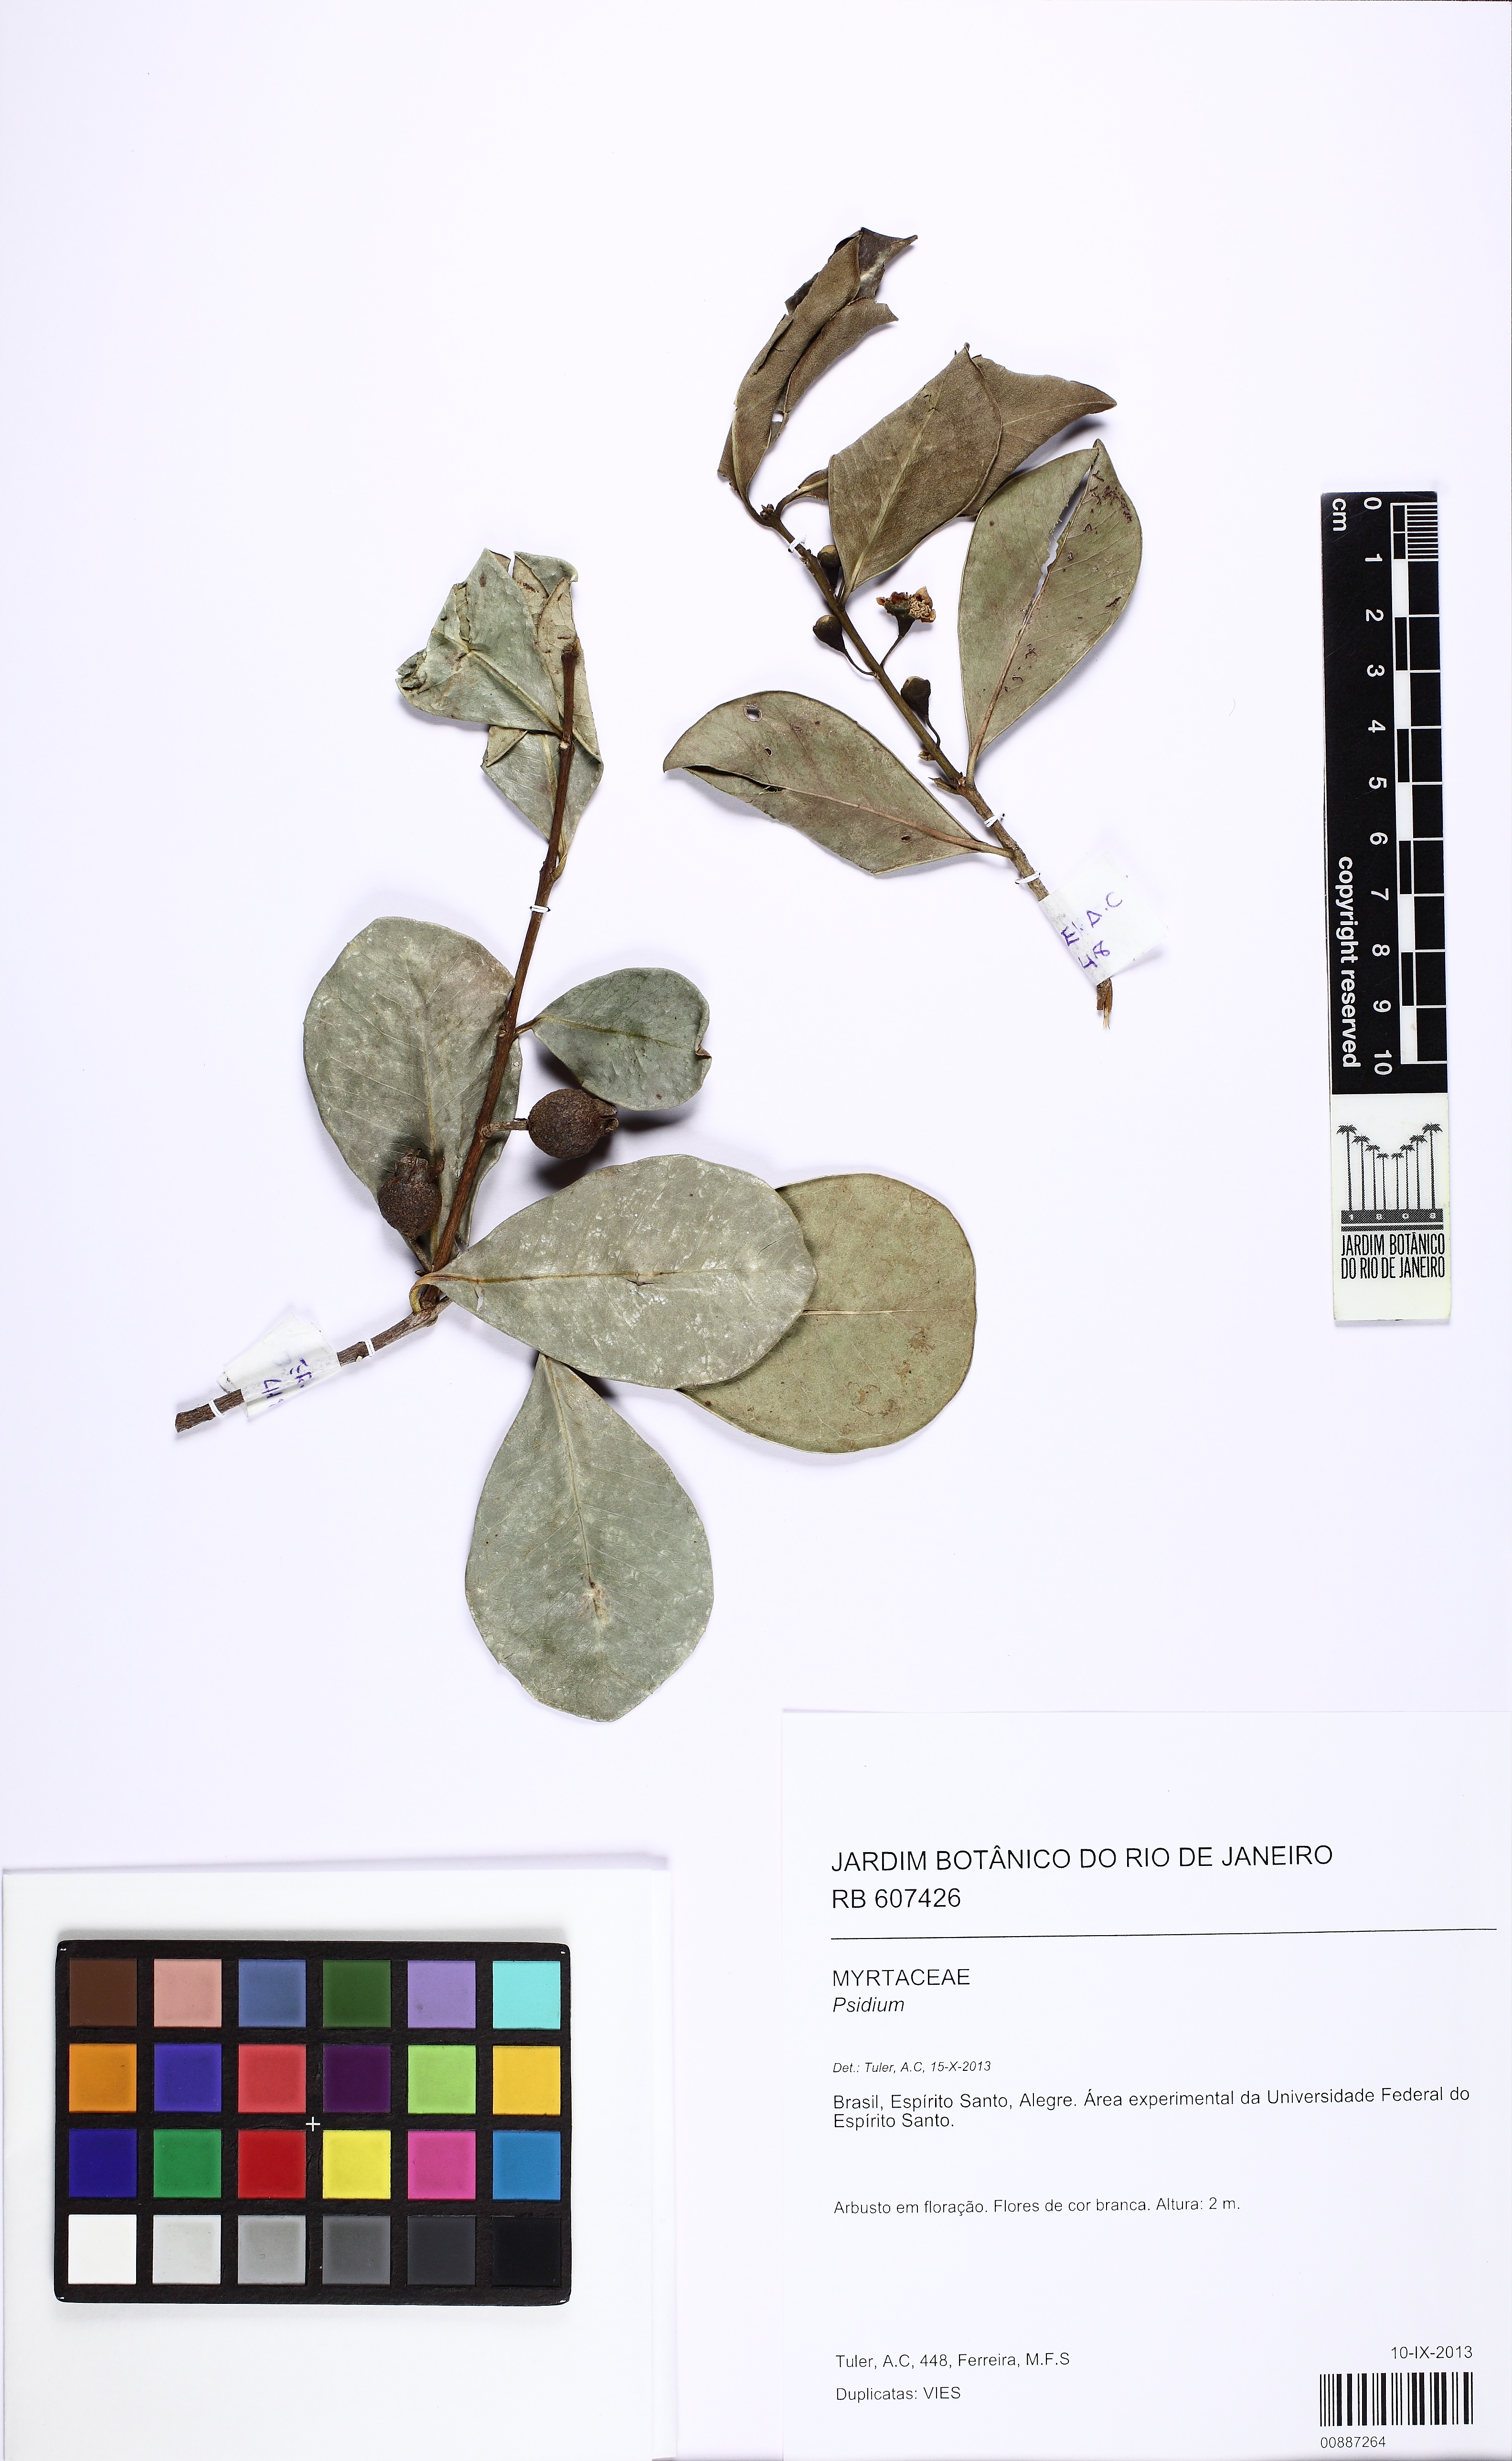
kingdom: Plantae
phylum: Tracheophyta
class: Magnoliopsida
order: Myrtales
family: Myrtaceae
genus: Psidium
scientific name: Psidium cattleianum
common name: Strawberry guava
